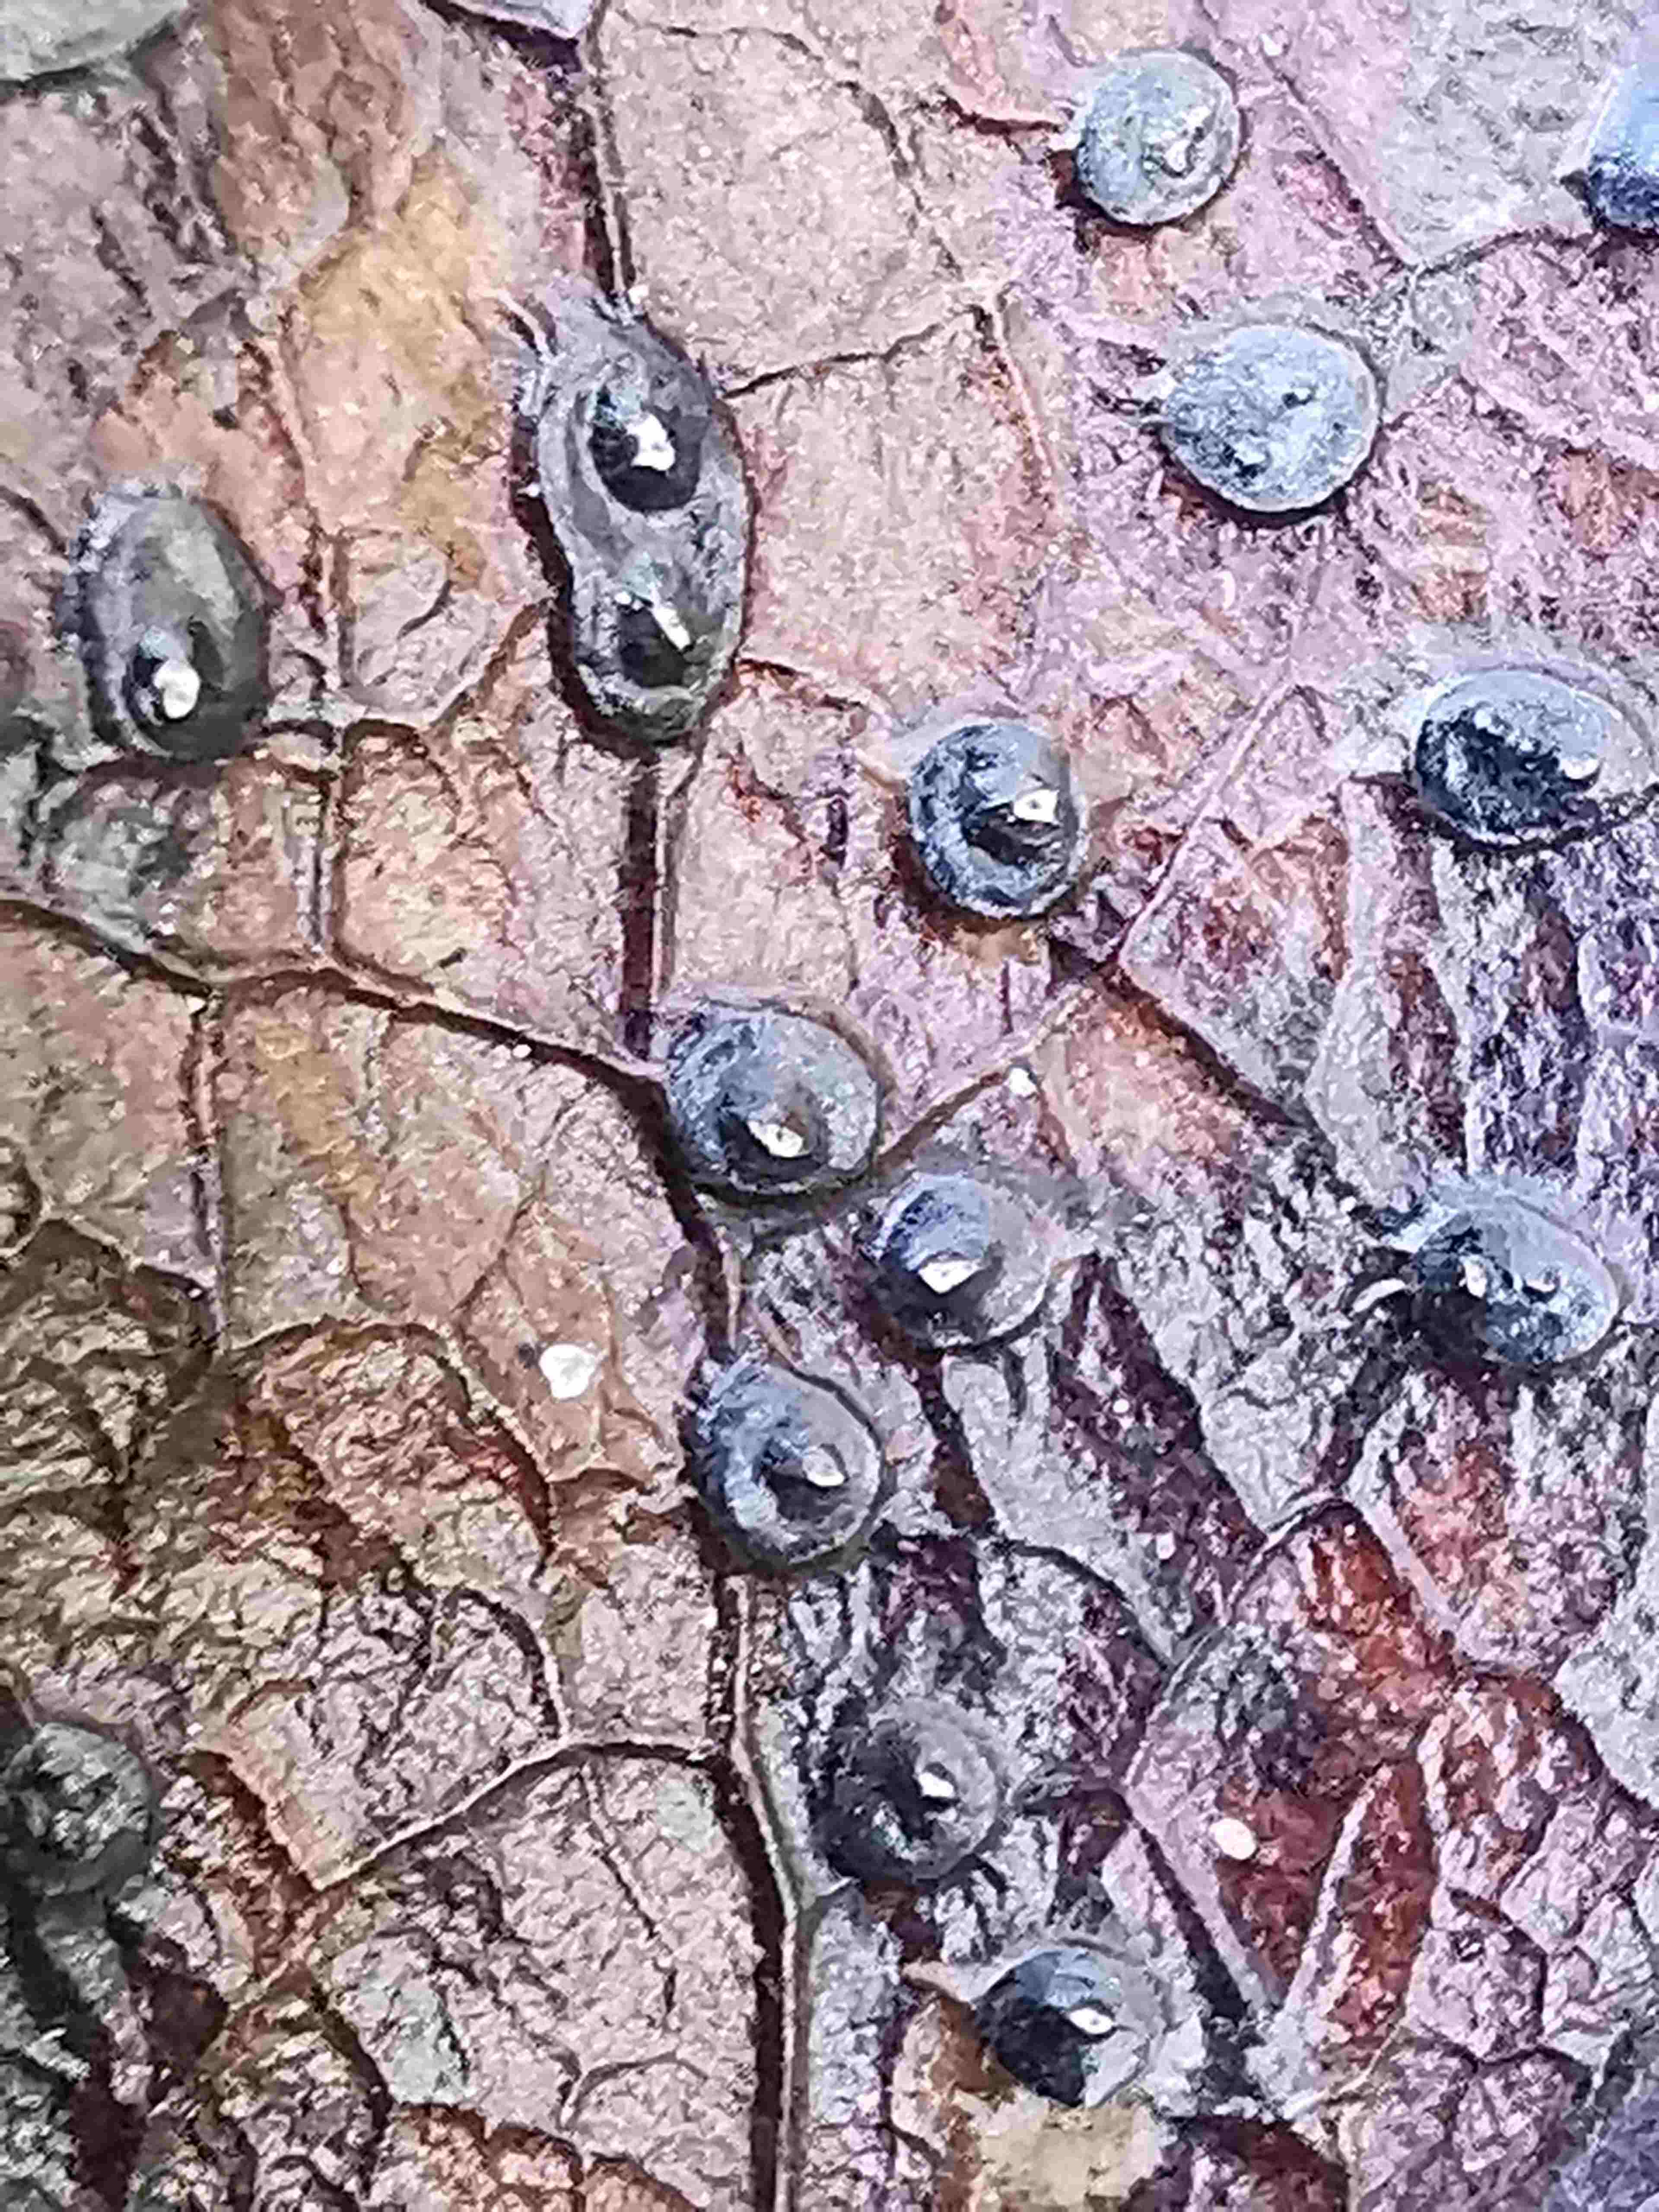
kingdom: Fungi
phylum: Ascomycota
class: Leotiomycetes
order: Phacidiales
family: Phacidiaceae
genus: Phacidium
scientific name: Phacidium lauri
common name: kristtorn-tandskive
